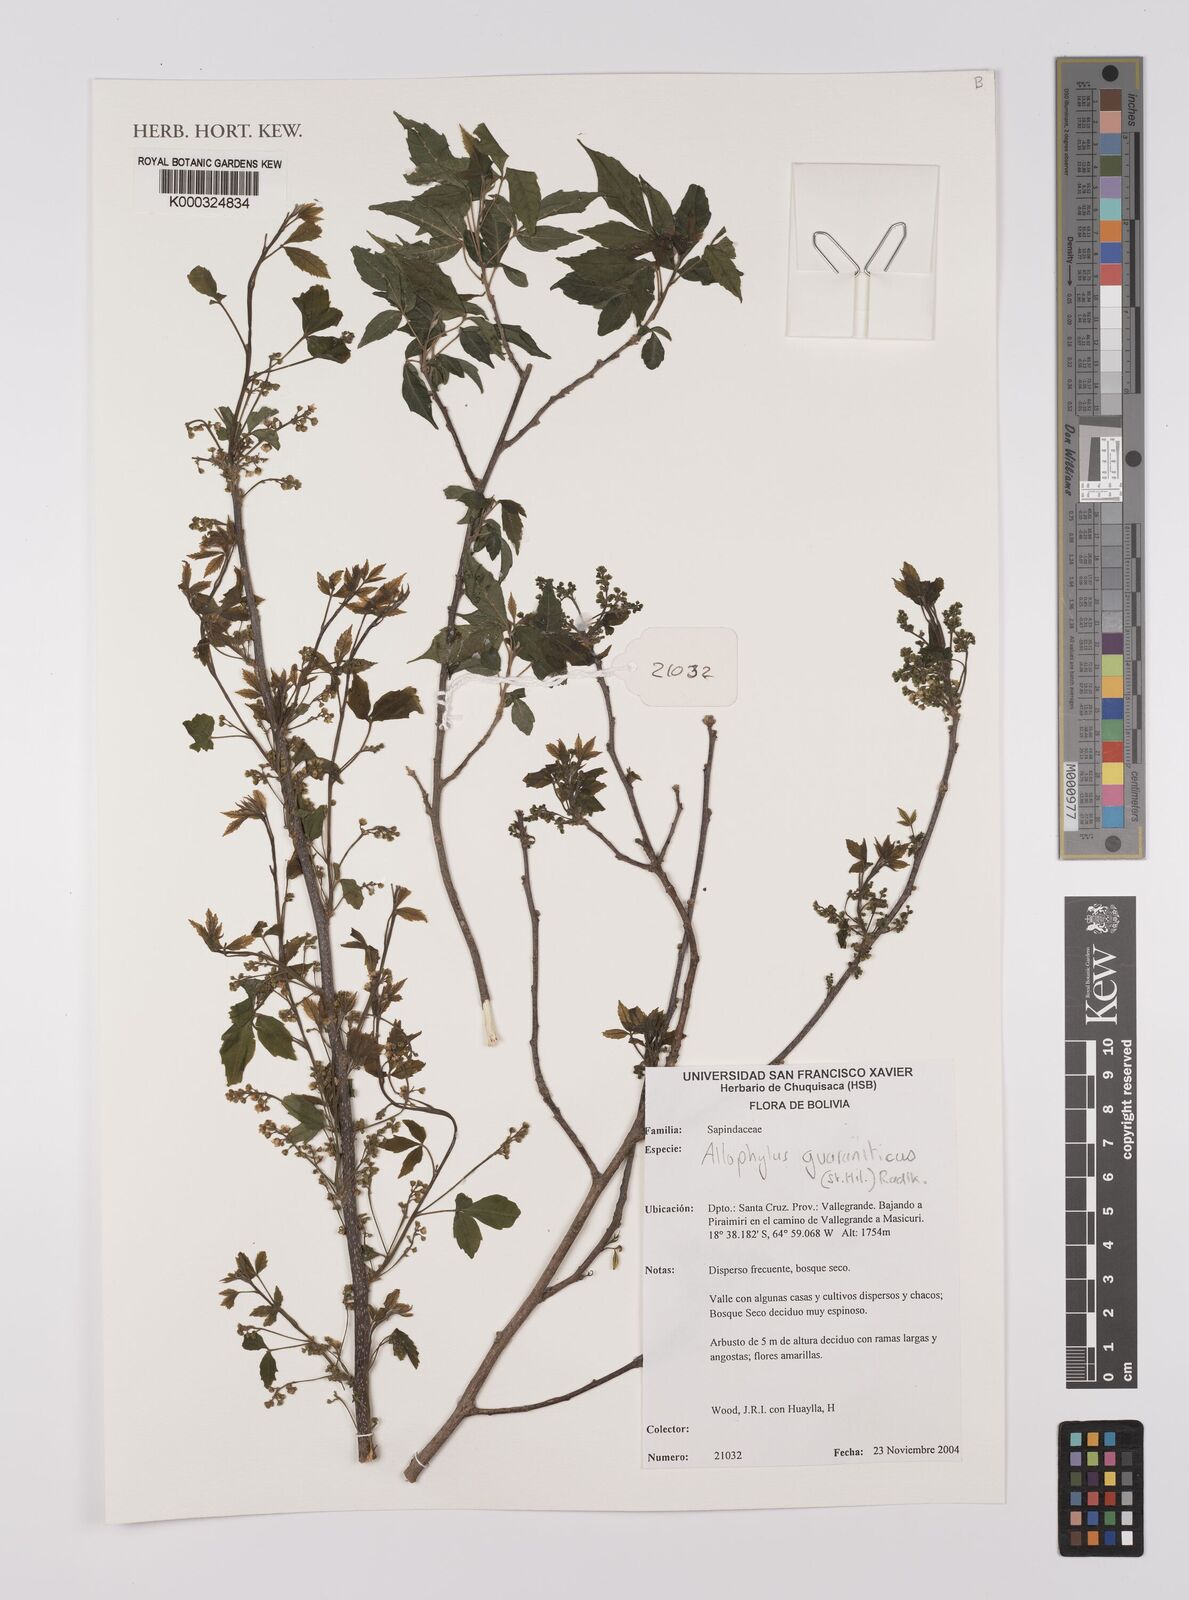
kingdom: Plantae
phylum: Tracheophyta
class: Magnoliopsida
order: Sapindales
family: Sapindaceae
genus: Allophylus
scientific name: Allophylus guaraniticus
